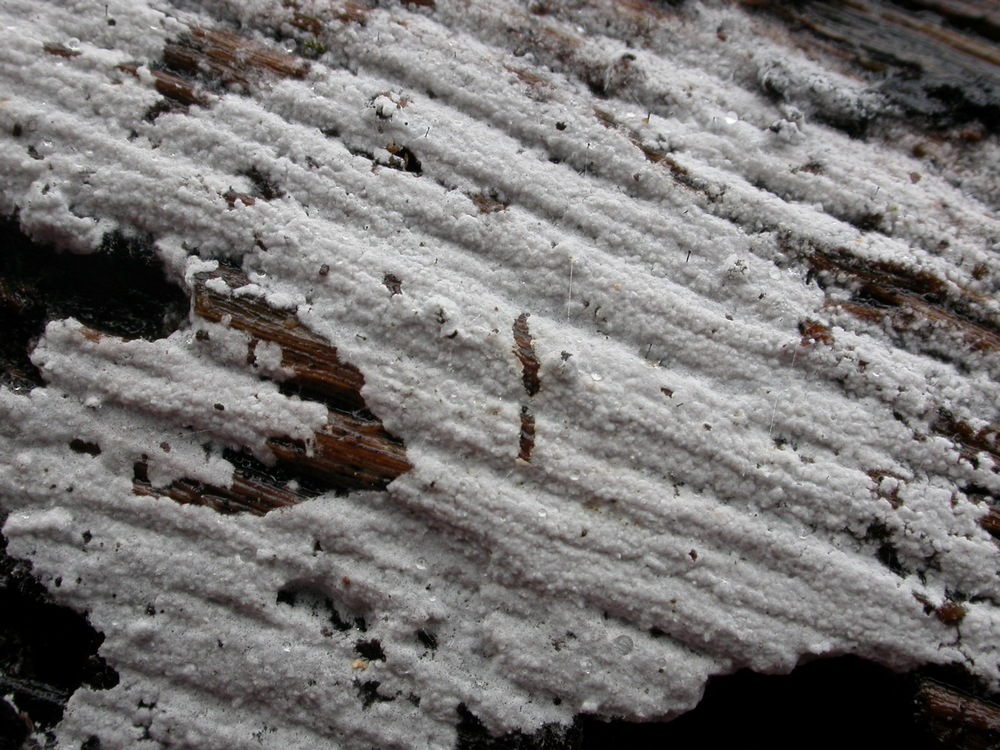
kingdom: Fungi
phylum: Basidiomycota
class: Agaricomycetes
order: Atheliales
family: Atheliaceae
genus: Athelia
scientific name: Athelia epiphylla
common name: almindelig barkhinde
